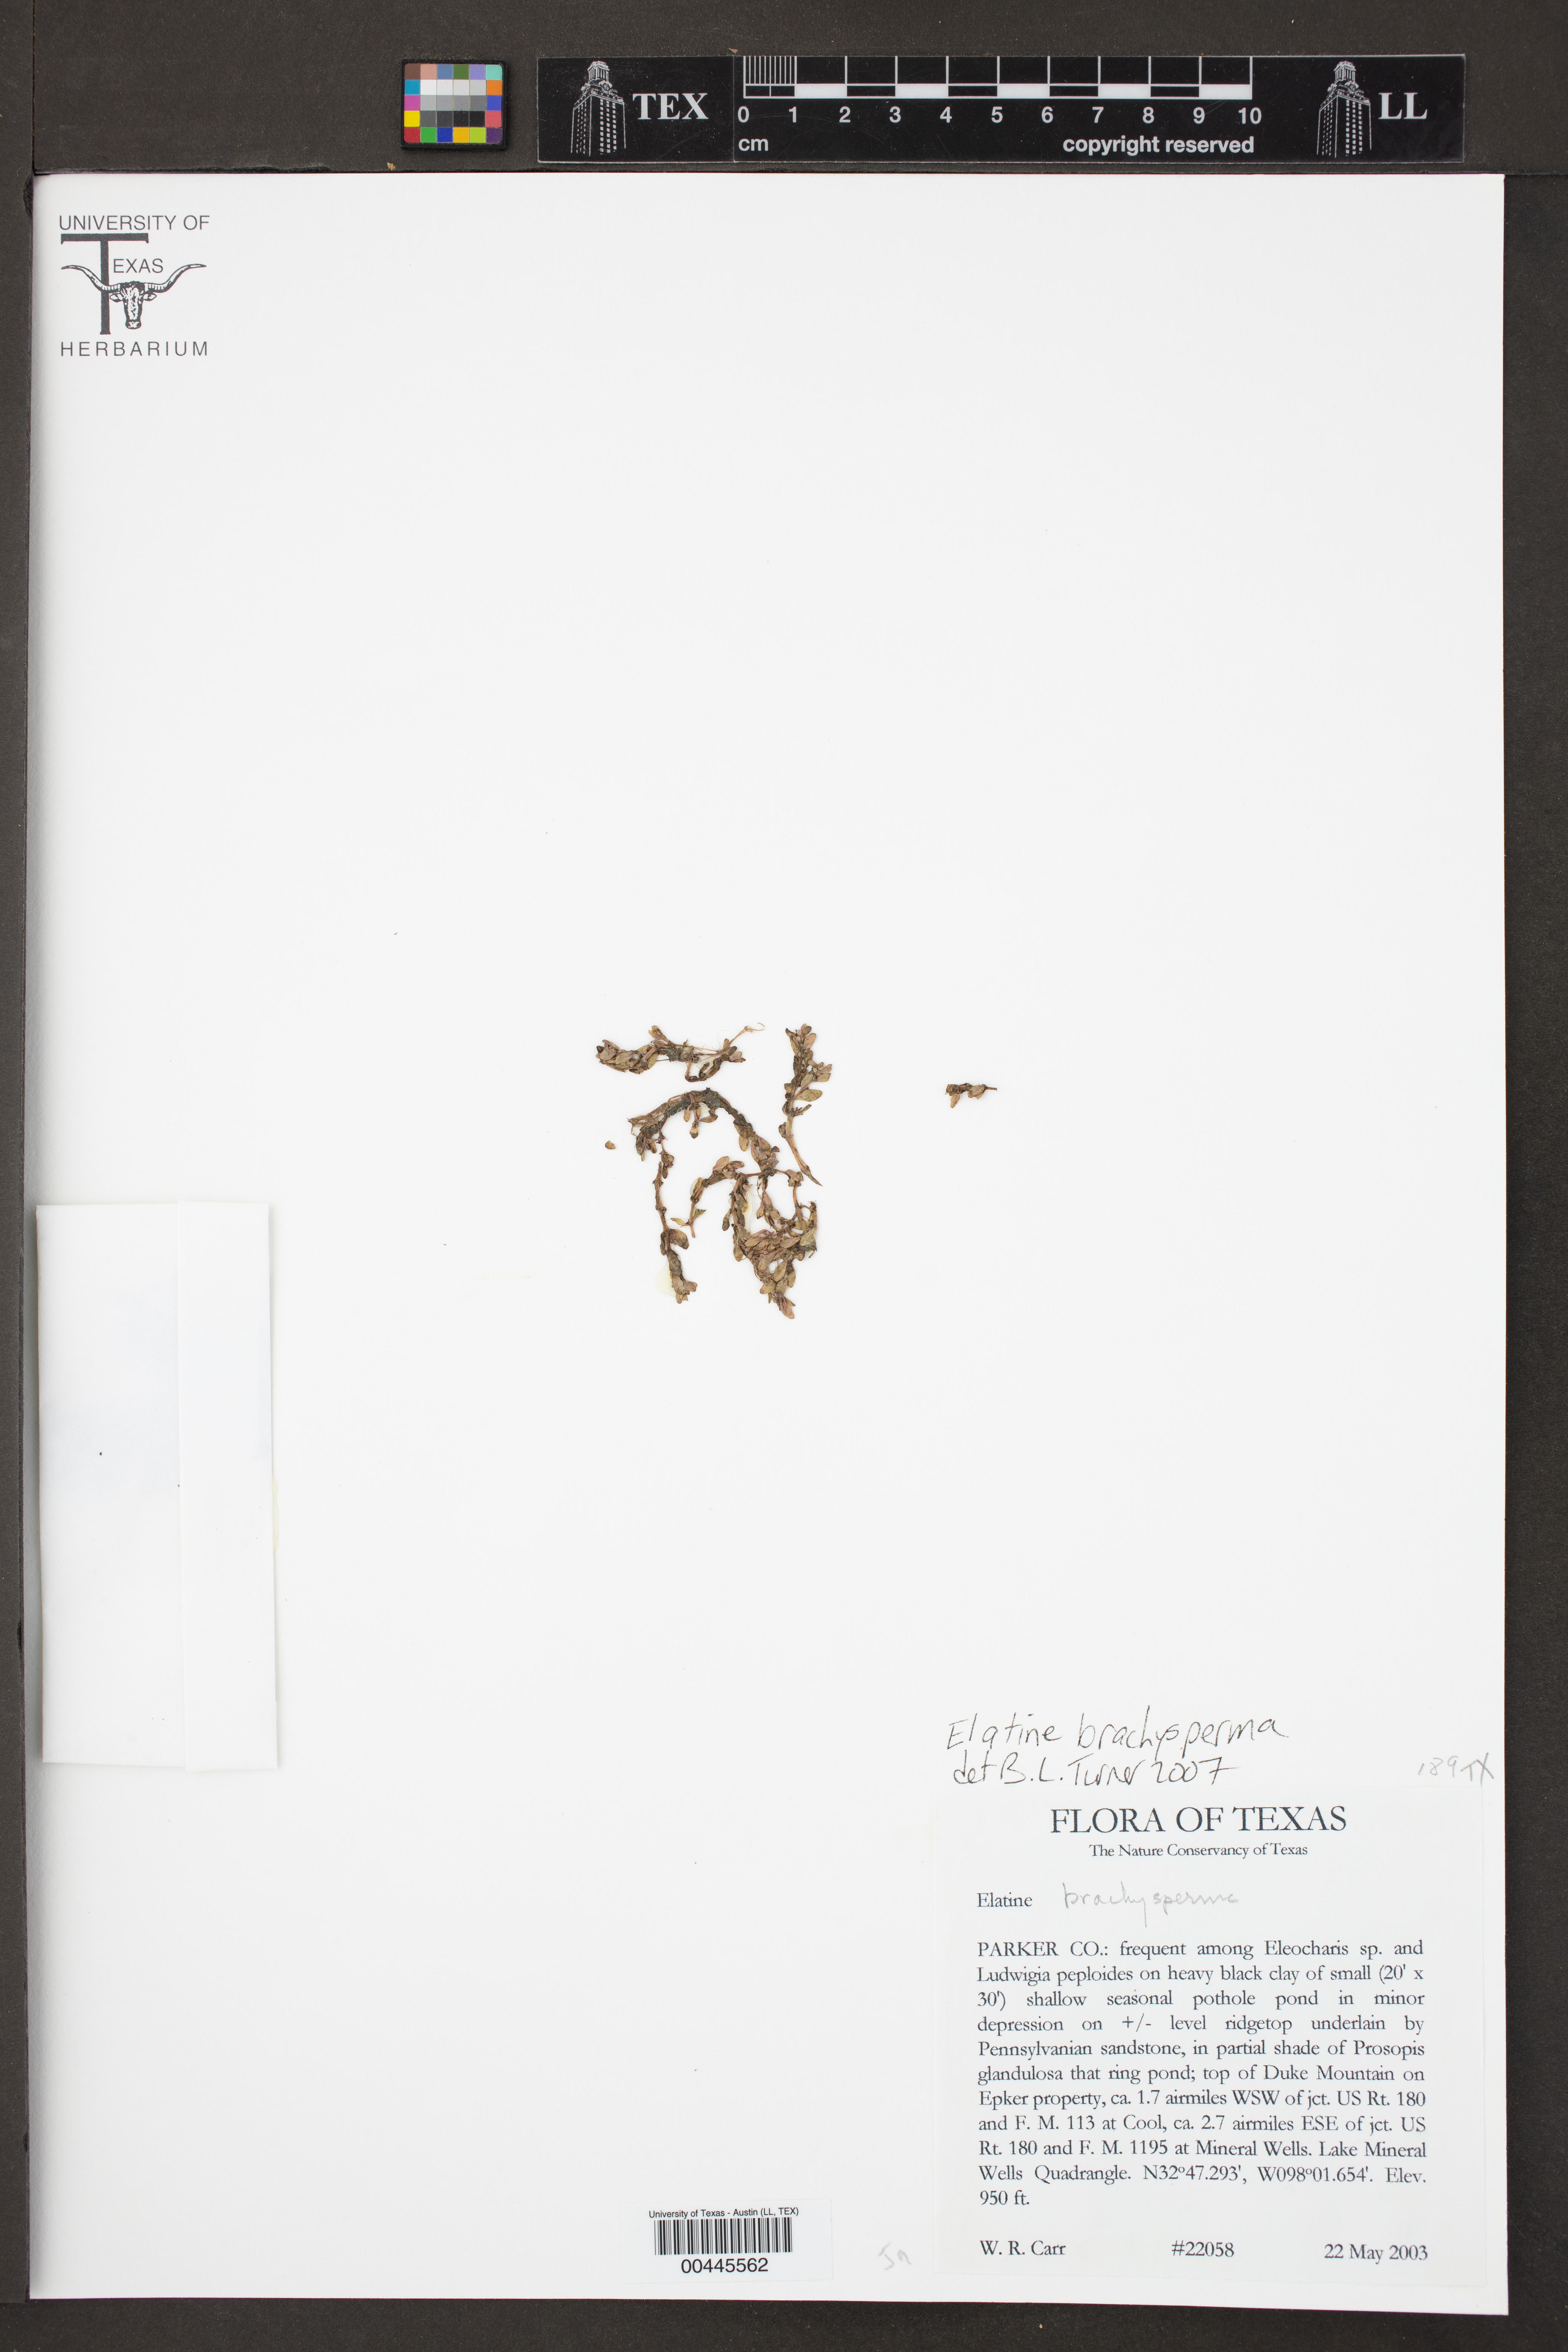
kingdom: Plantae
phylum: Tracheophyta
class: Magnoliopsida
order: Malpighiales
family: Elatinaceae
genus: Elatine
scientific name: Elatine brachysperma
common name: Short-fruited waterwort
